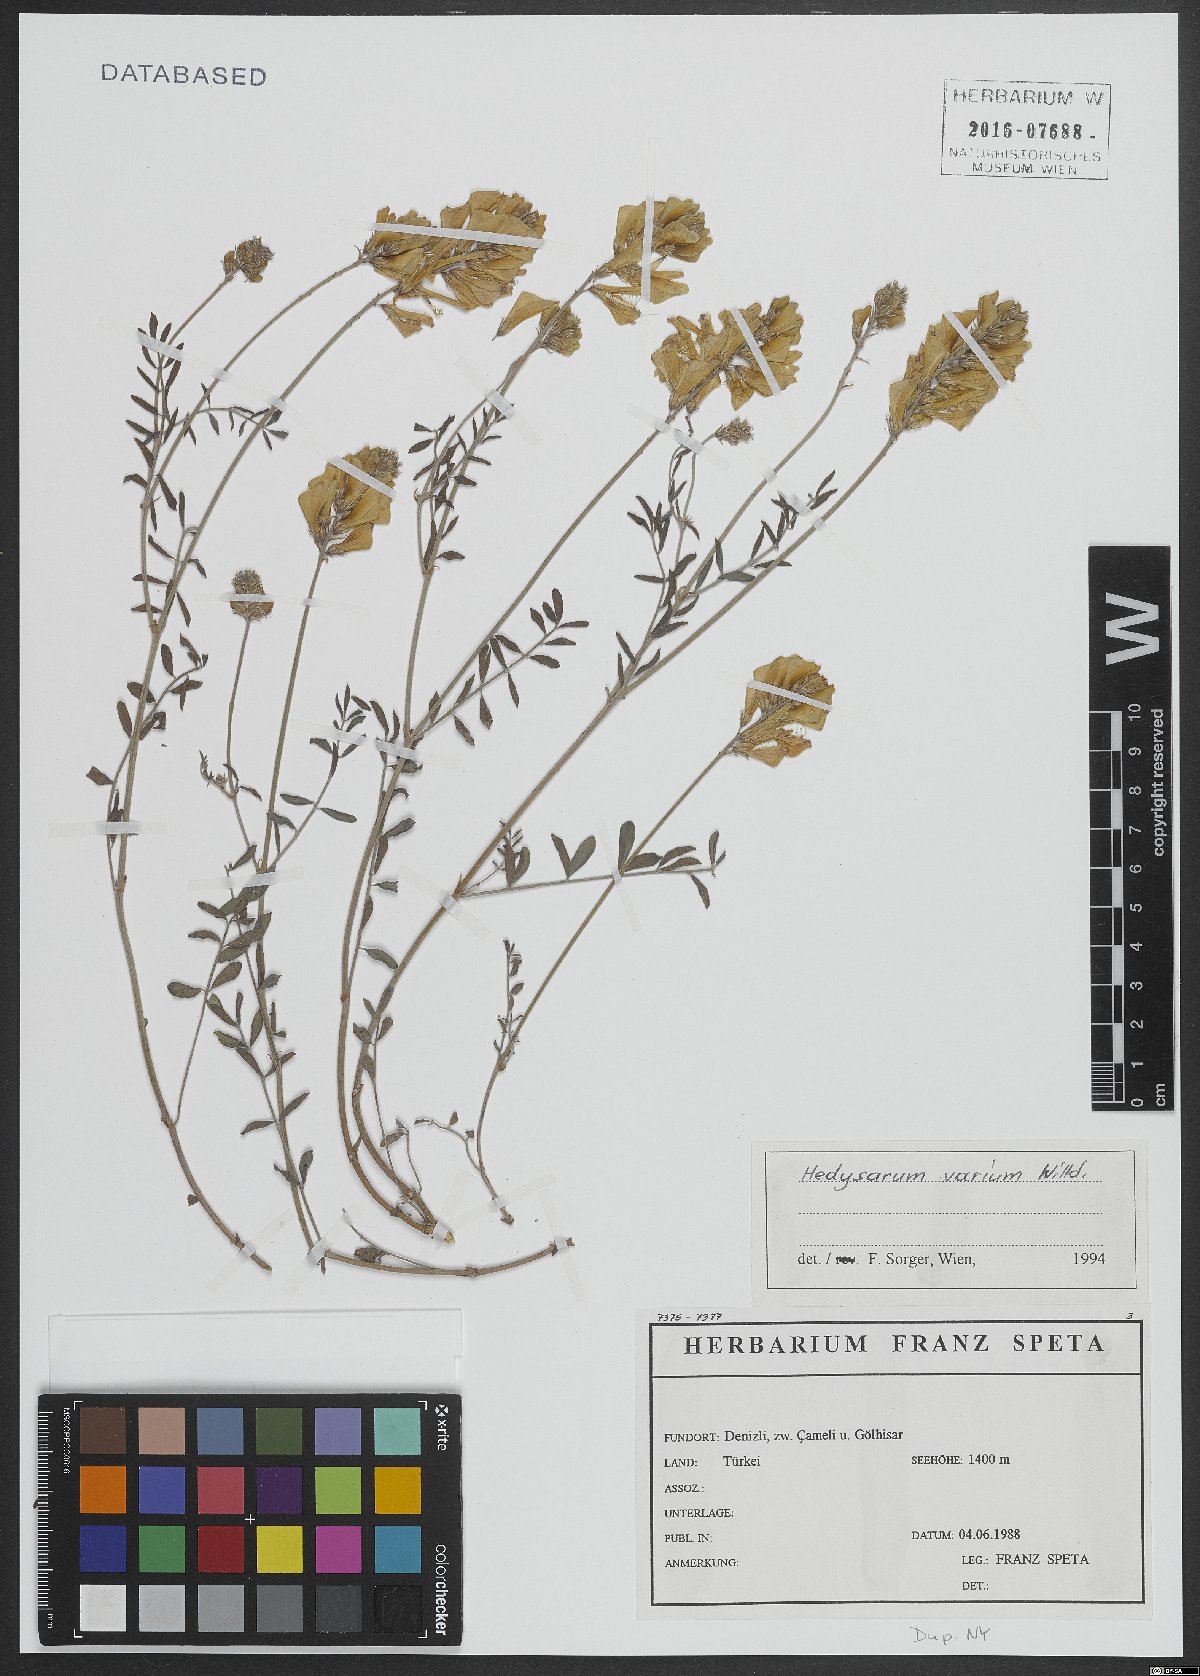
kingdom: Plantae
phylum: Tracheophyta
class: Magnoliopsida
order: Fabales
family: Fabaceae
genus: Hedysarum
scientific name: Hedysarum varium
